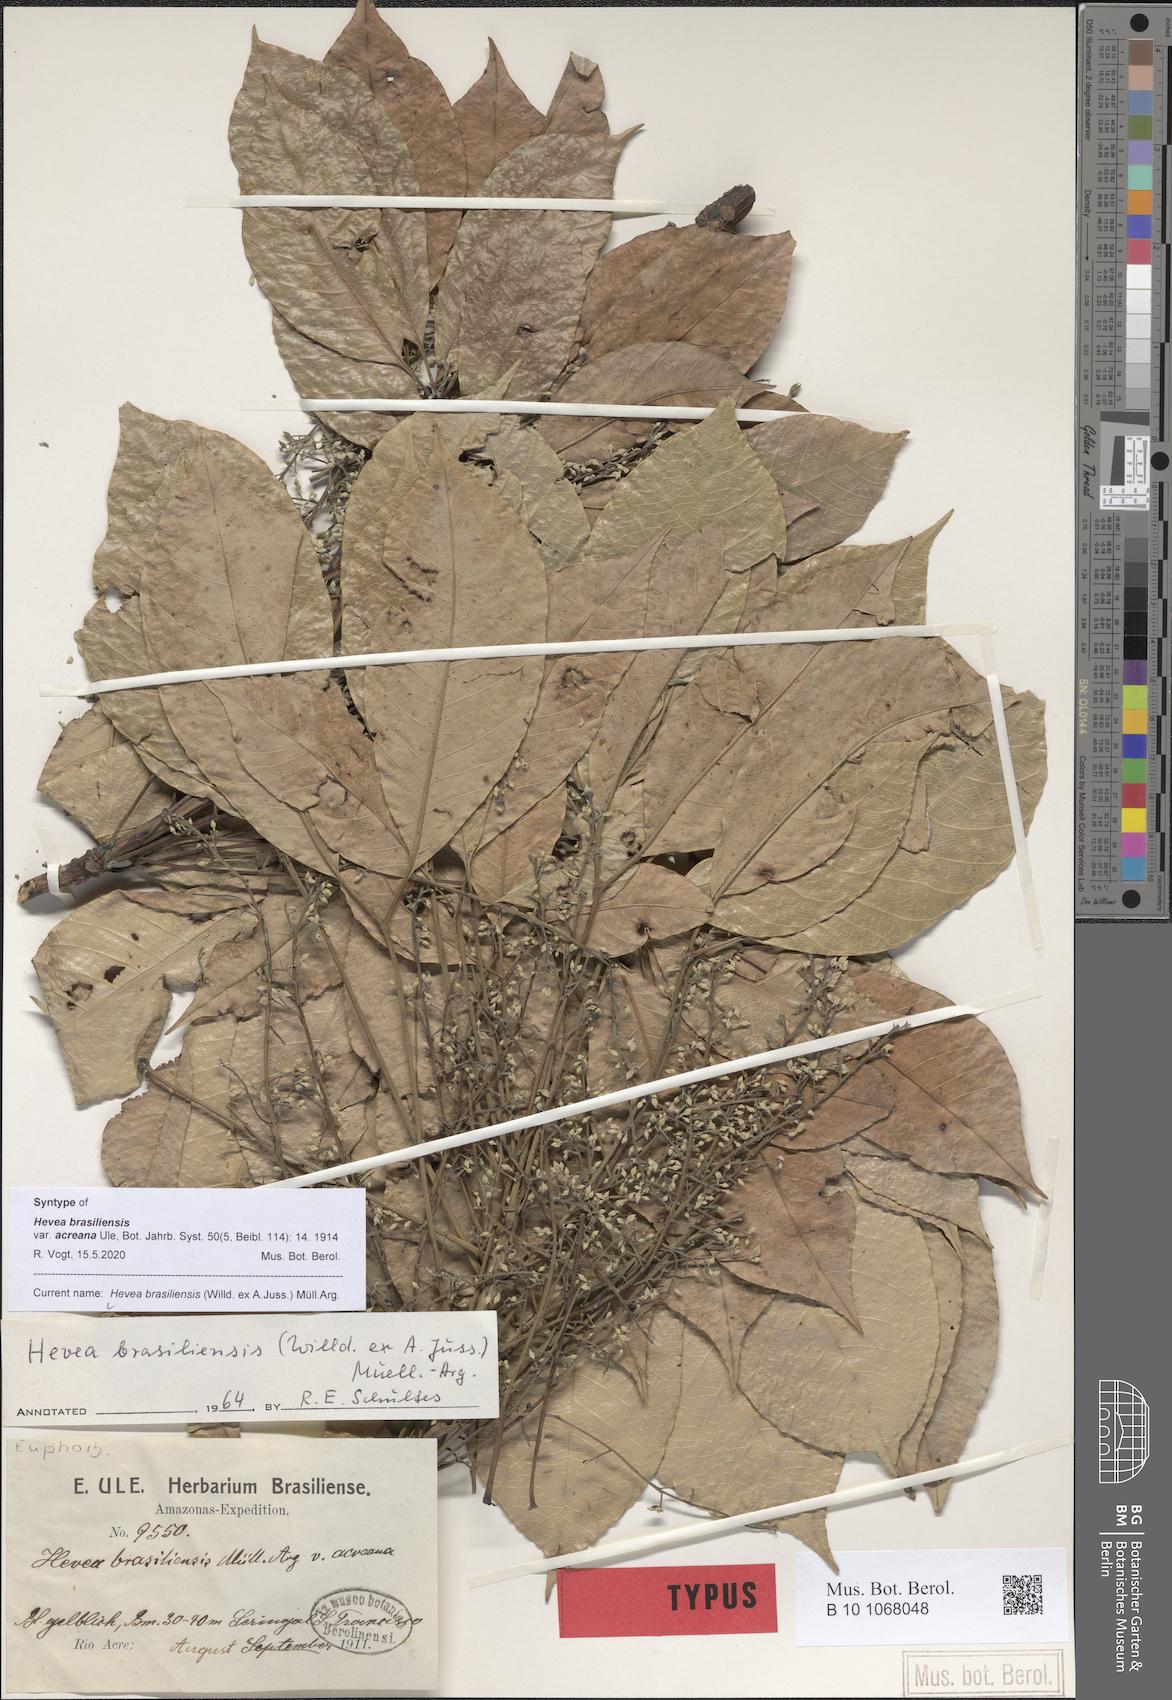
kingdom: Plantae
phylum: Tracheophyta
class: Magnoliopsida
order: Malpighiales
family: Euphorbiaceae
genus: Hevea
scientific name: Hevea brasiliensis
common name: Natural rubber
